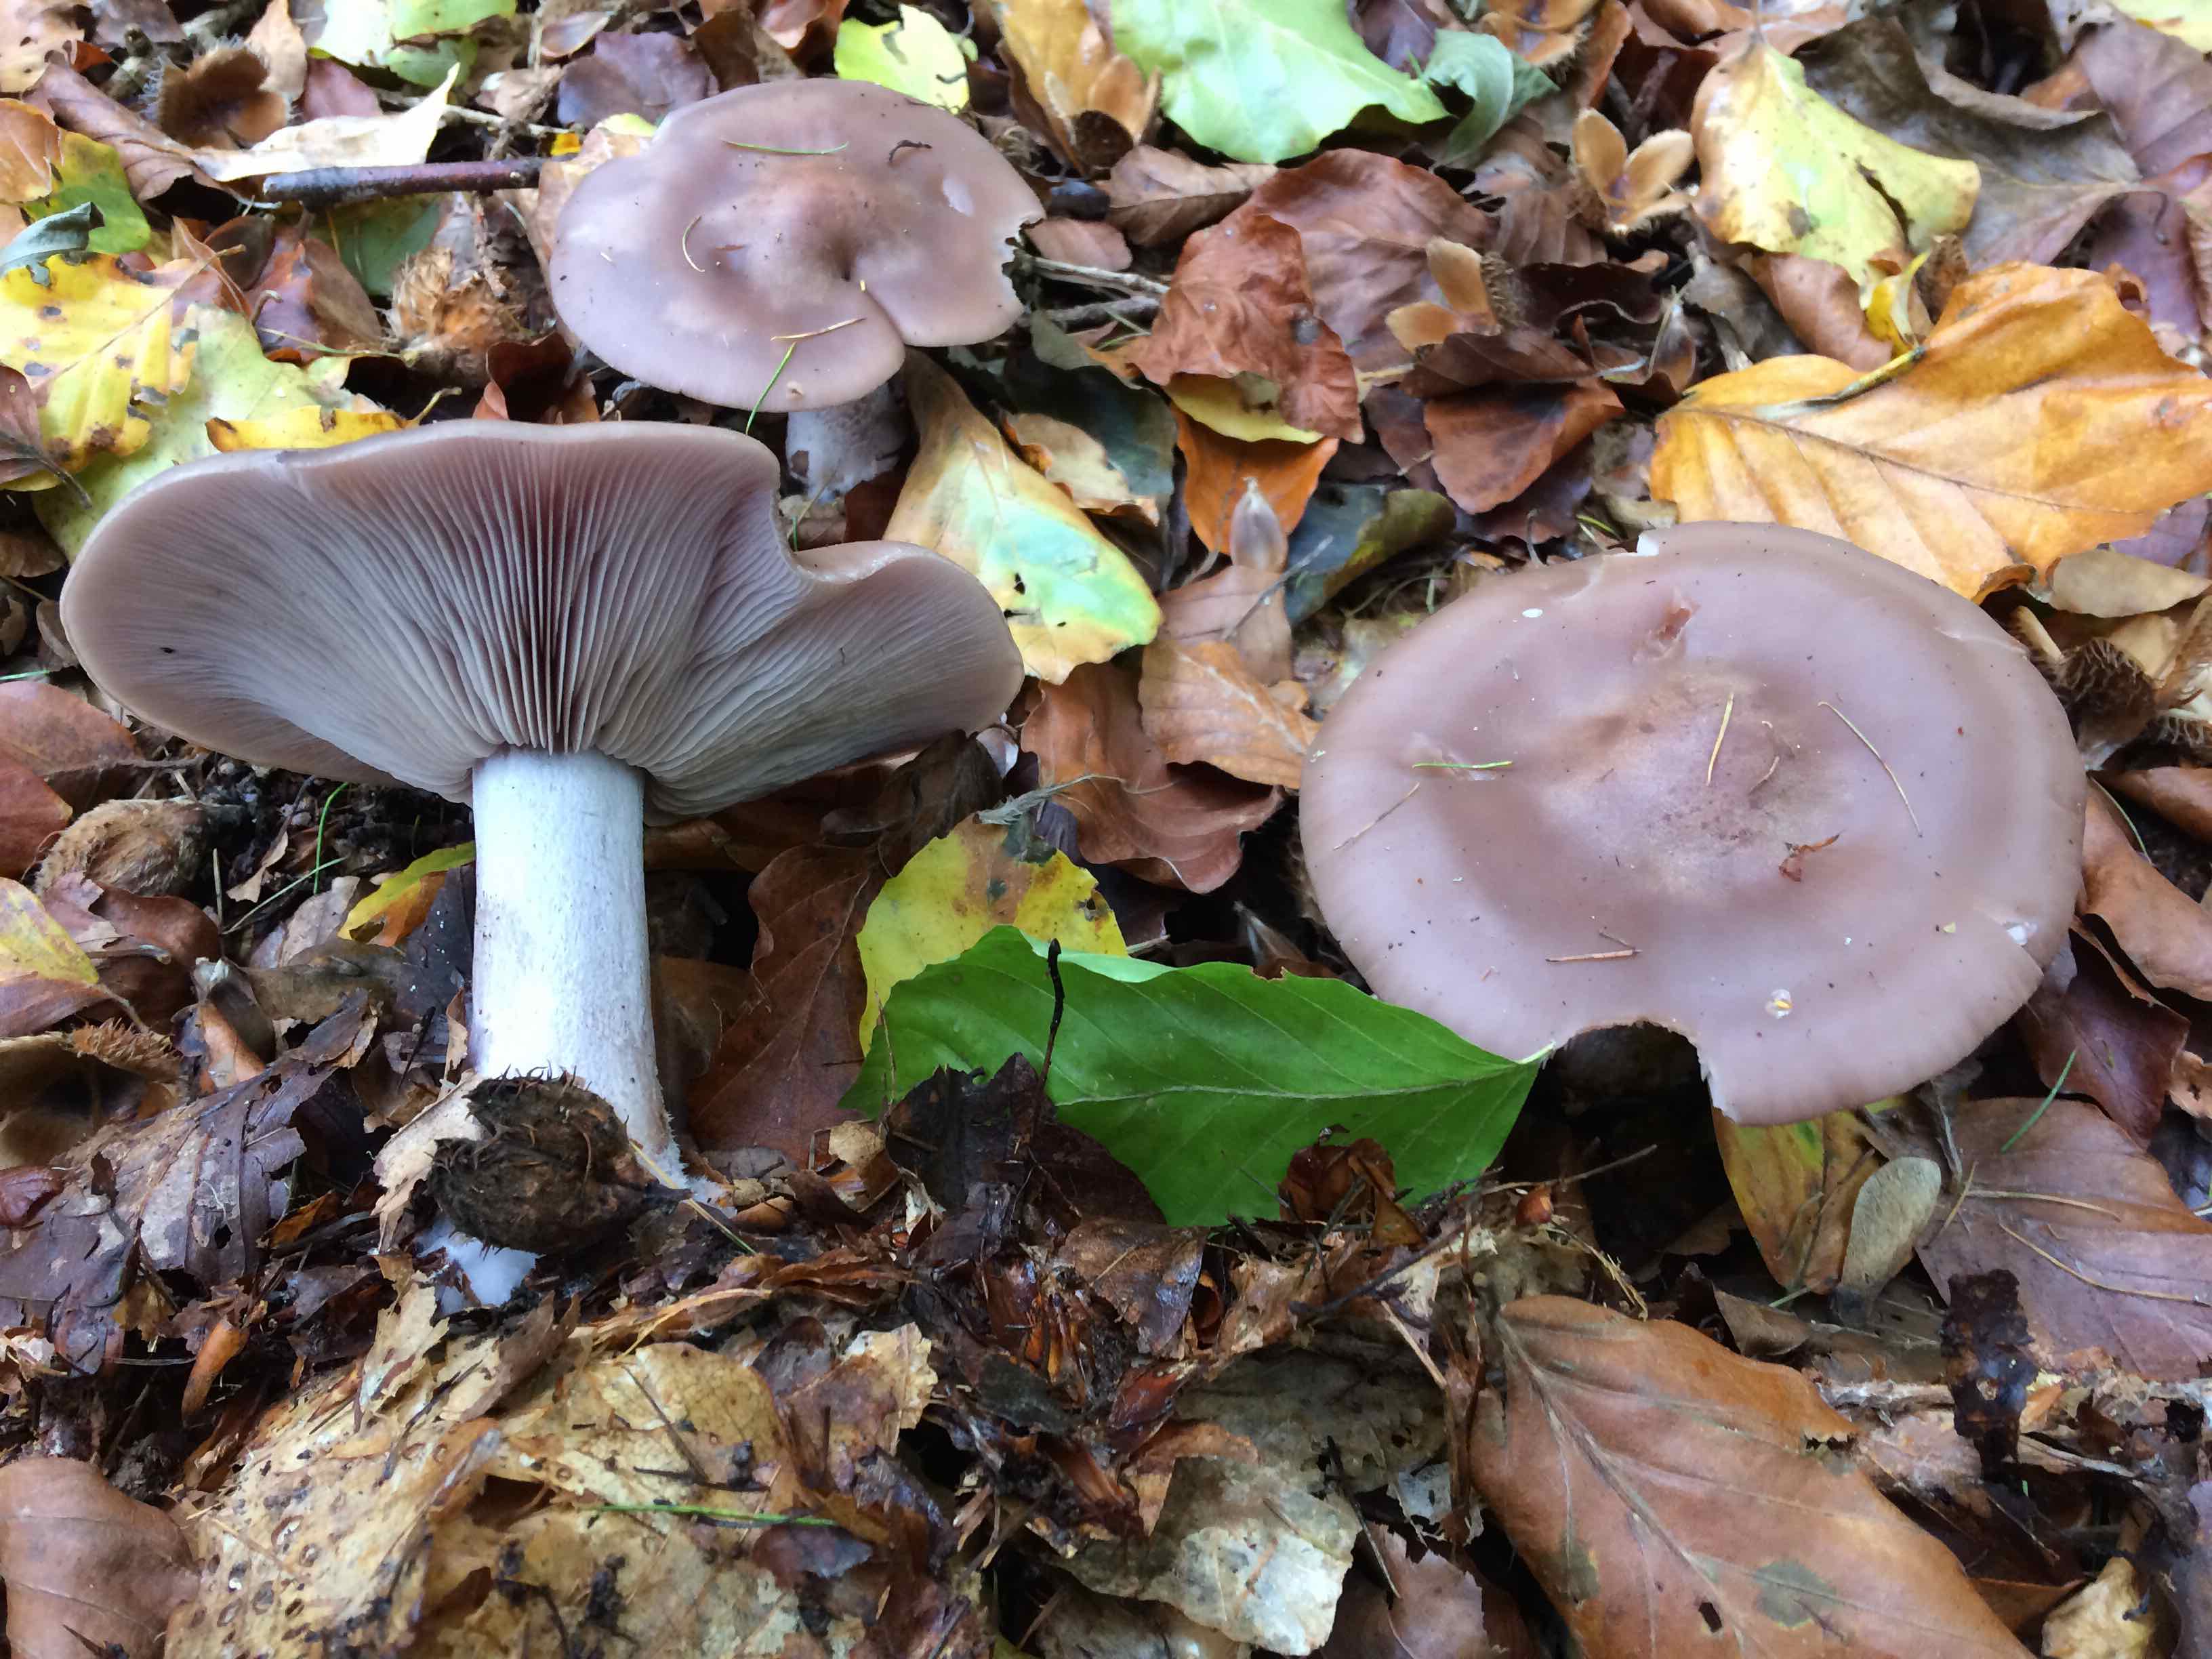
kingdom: Fungi
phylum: Basidiomycota
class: Agaricomycetes
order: Agaricales
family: Tricholomataceae
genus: Lepista
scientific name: Lepista nuda
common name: violet hekseringshat
